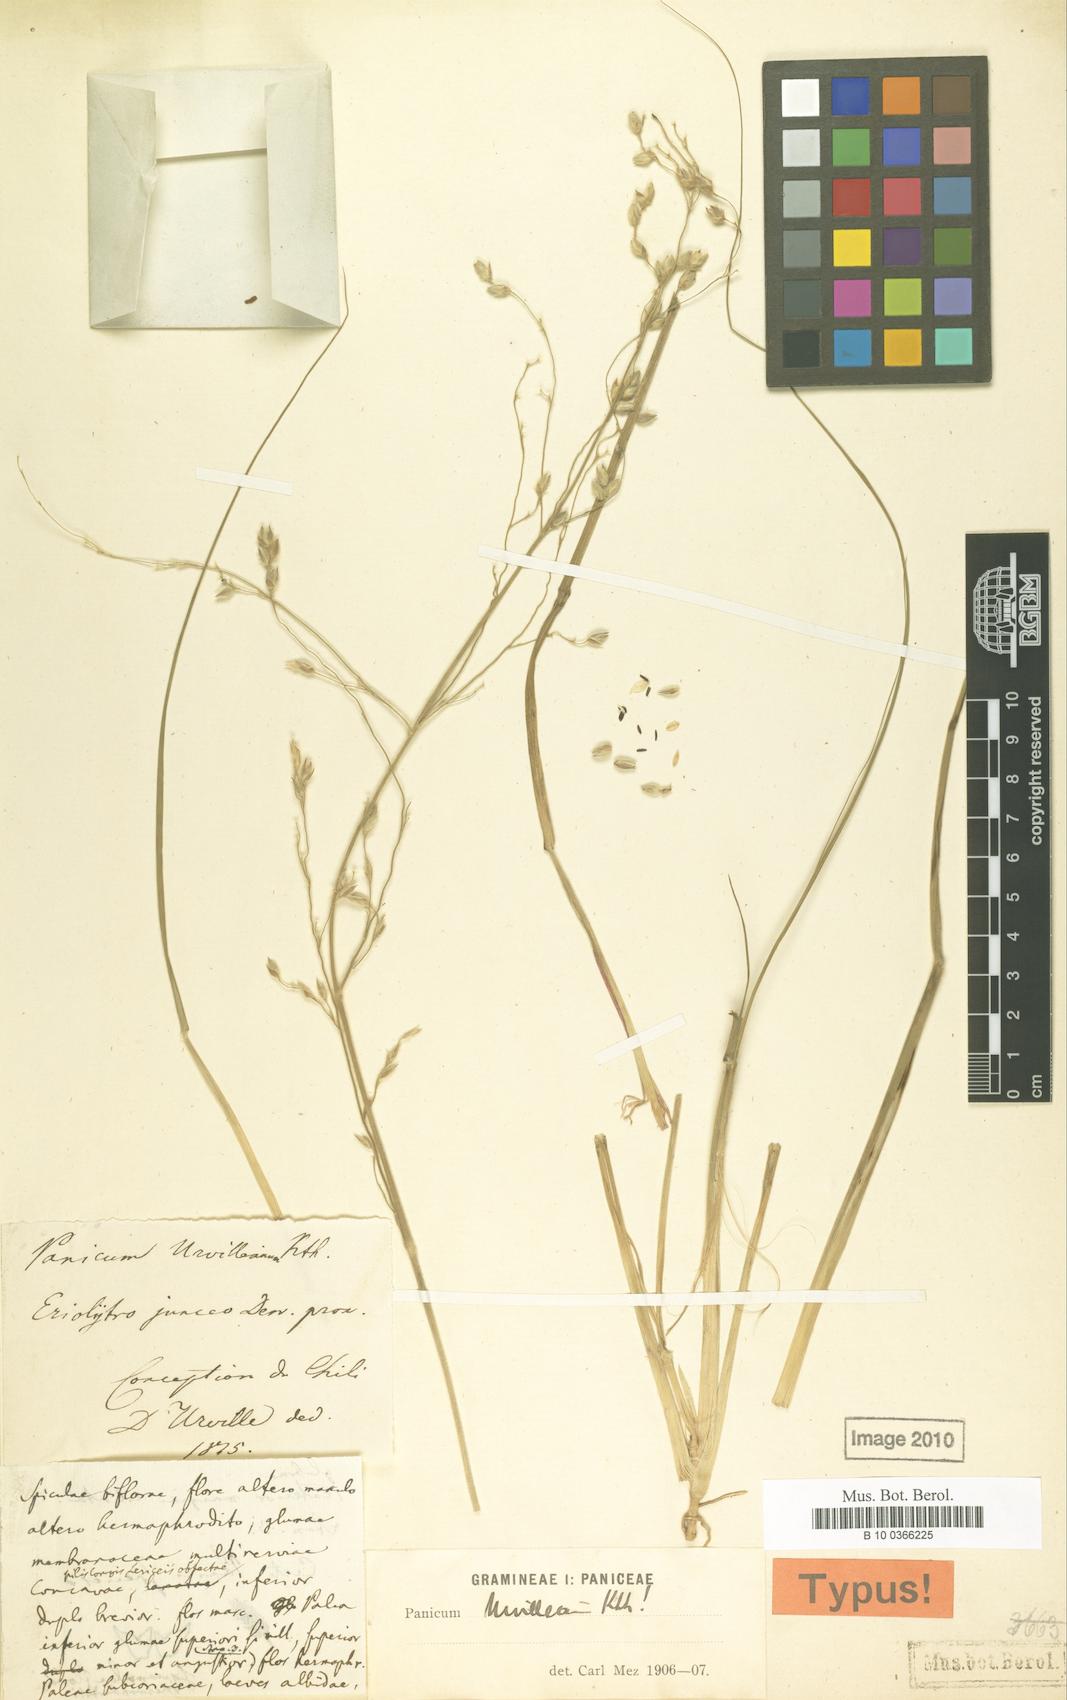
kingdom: Plantae
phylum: Tracheophyta
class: Liliopsida
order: Poales
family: Poaceae
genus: Panicum
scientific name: Panicum urvilleanum
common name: Silky panic grass
